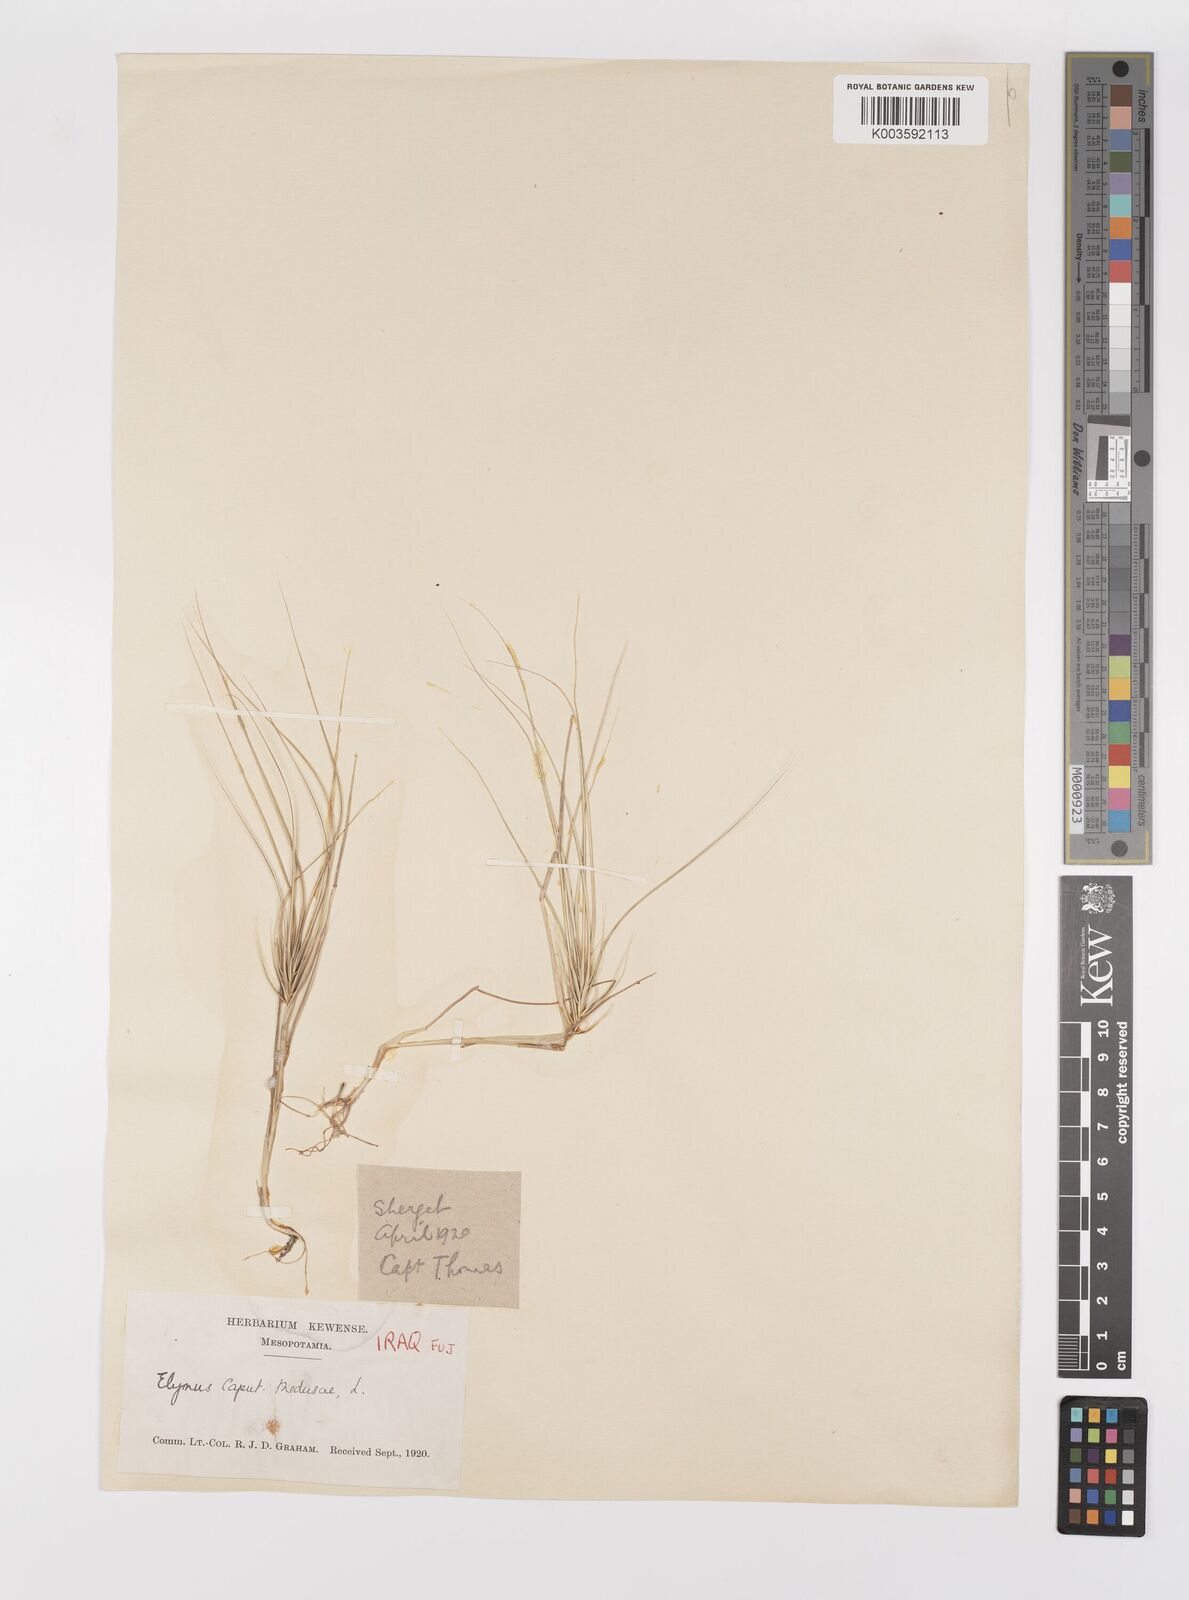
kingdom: Plantae
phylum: Tracheophyta
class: Liliopsida
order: Poales
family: Poaceae
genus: Taeniatherum
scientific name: Taeniatherum caput-medusae
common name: Medusahead
